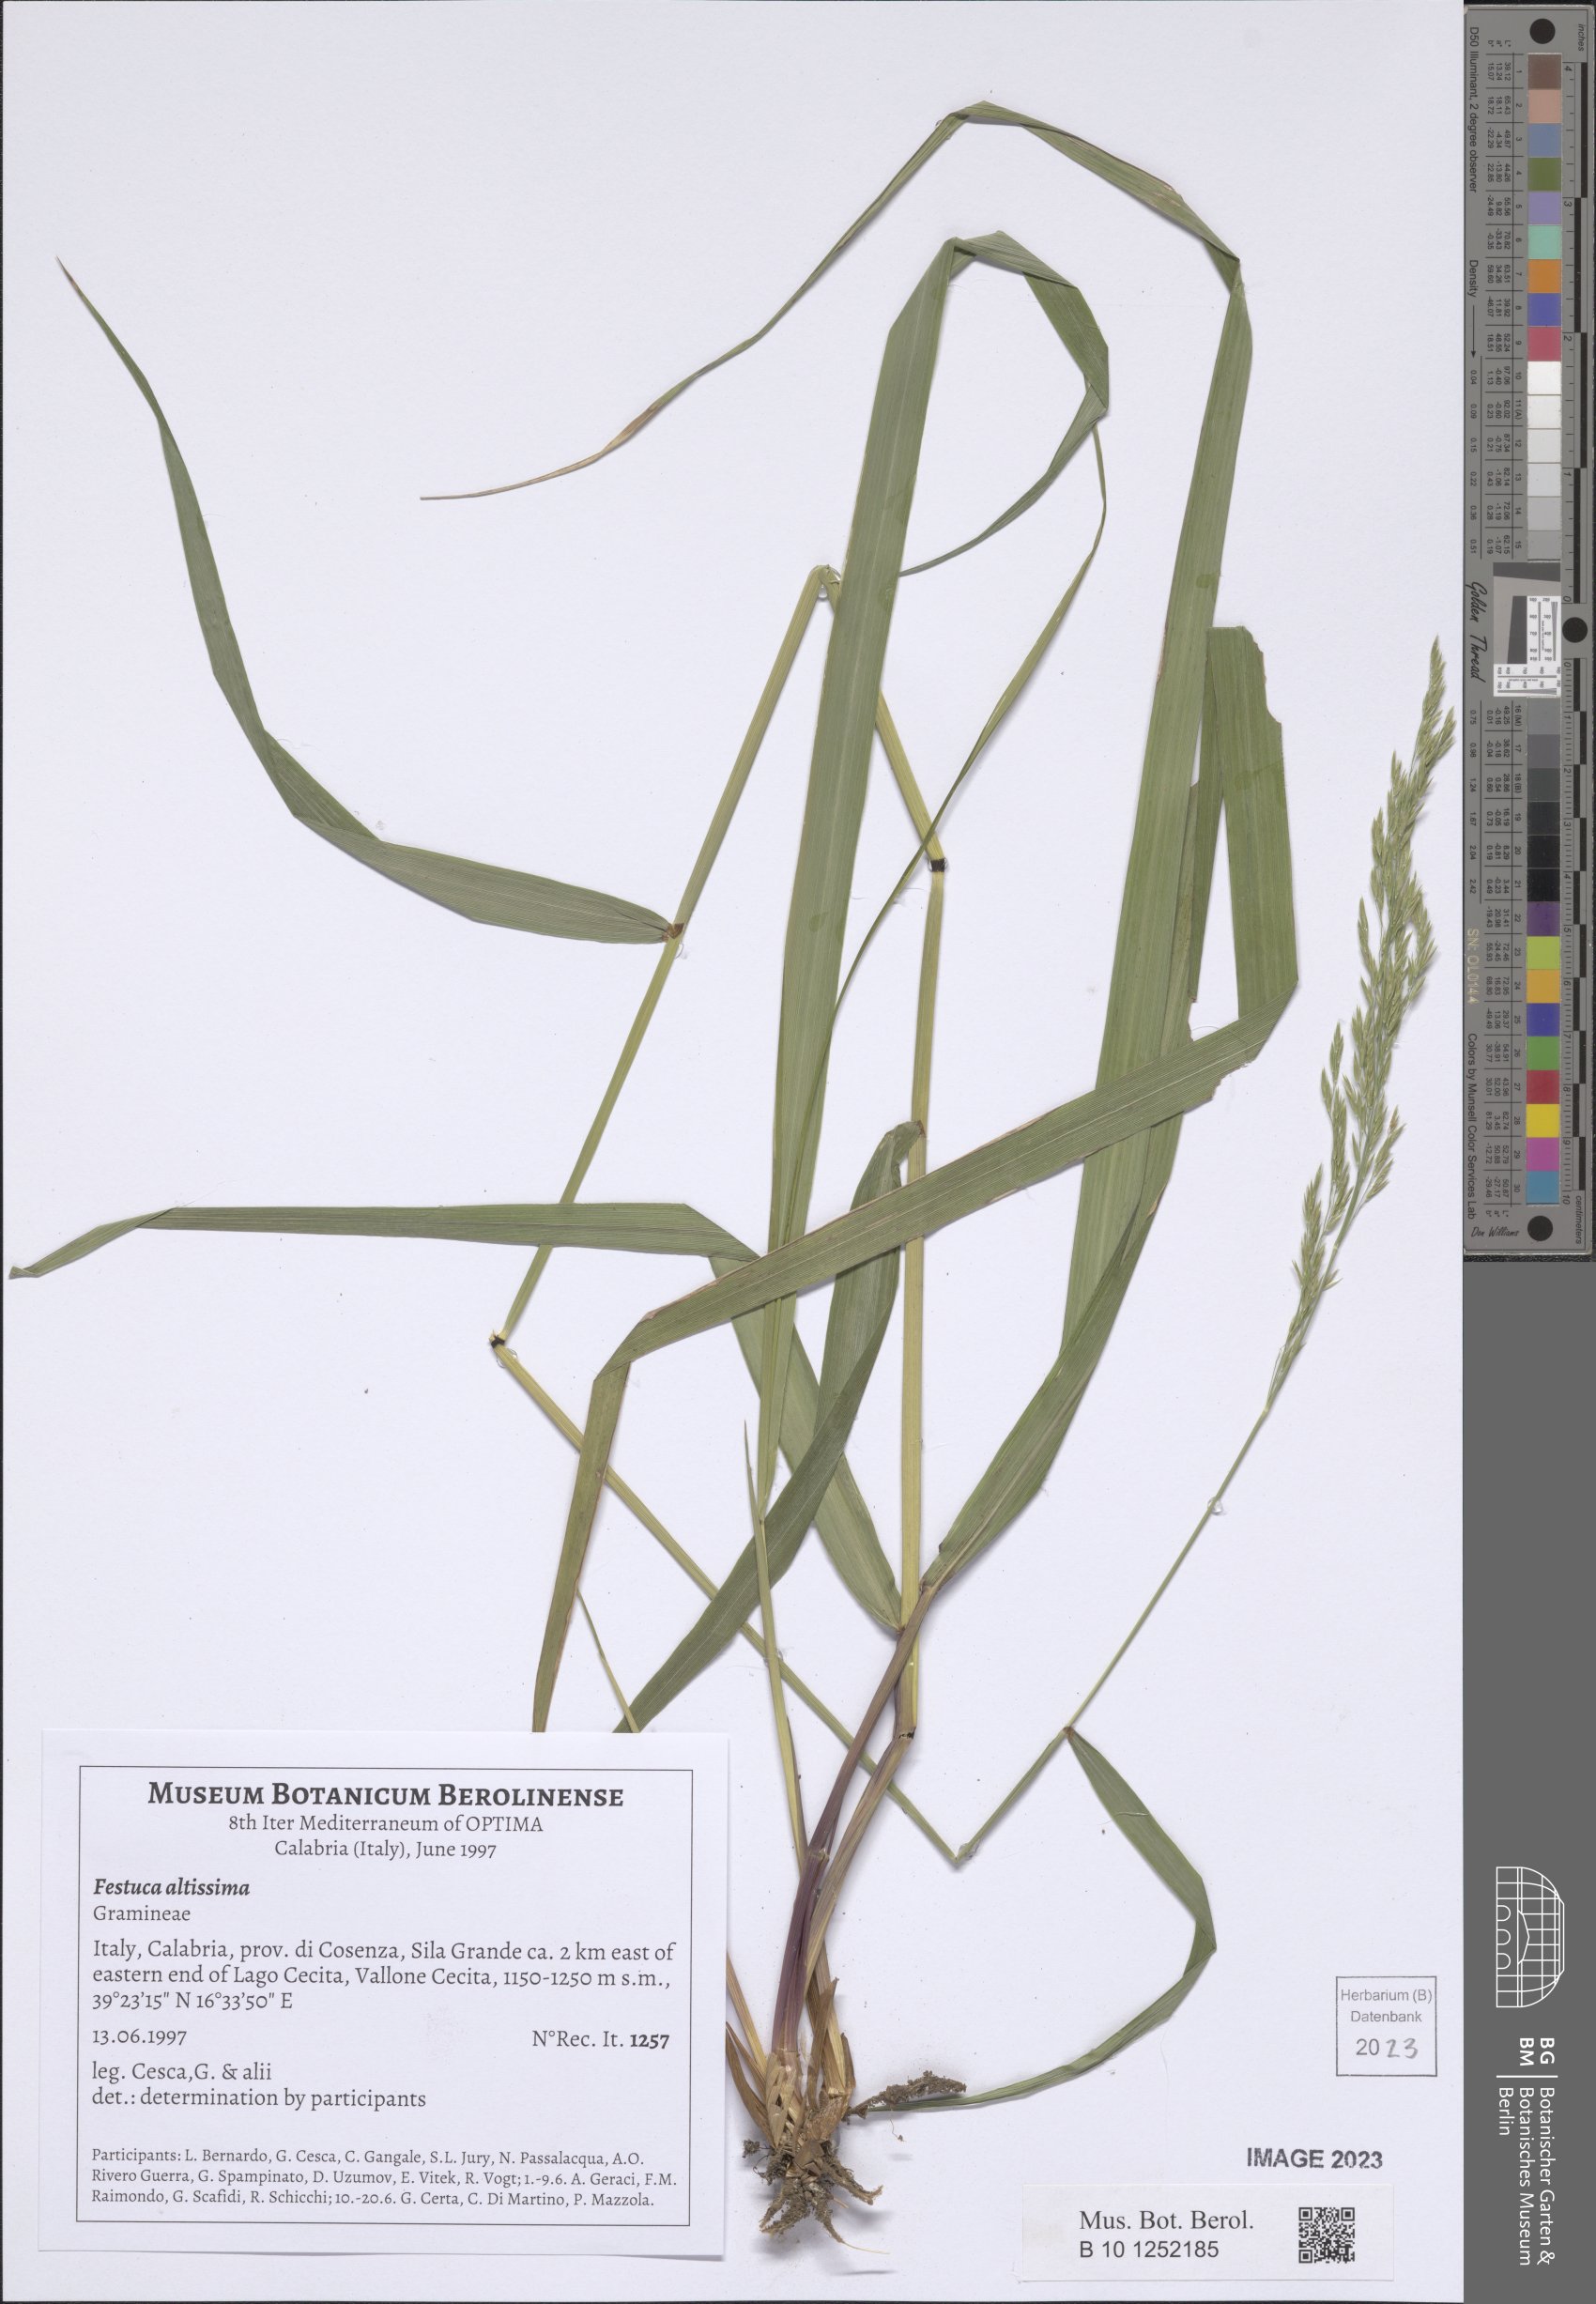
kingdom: Plantae
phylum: Tracheophyta
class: Liliopsida
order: Poales
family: Poaceae
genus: Festuca
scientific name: Festuca altissima
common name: Wood fescue
